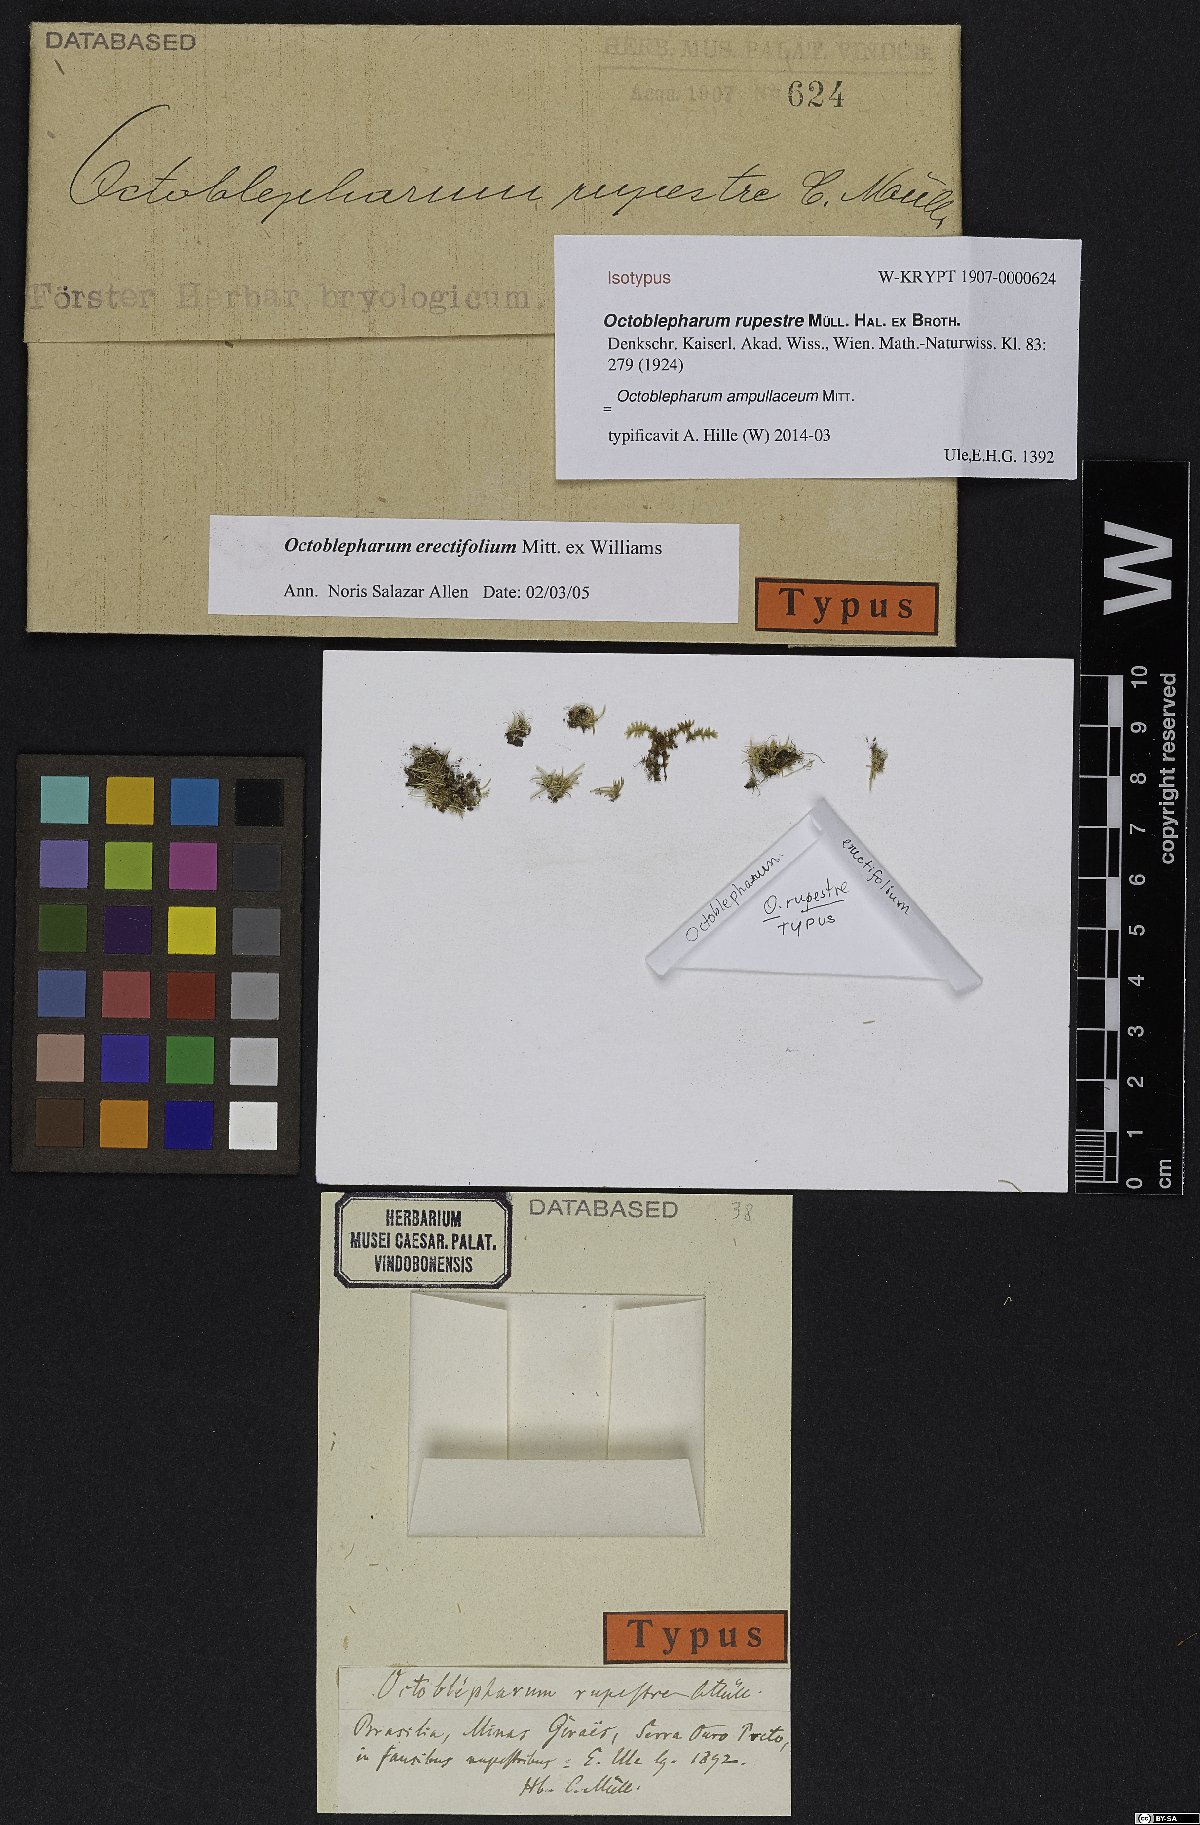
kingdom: Plantae
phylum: Bryophyta
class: Bryopsida
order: Dicranales
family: Octoblepharaceae
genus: Octoblepharum
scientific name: Octoblepharum ampullaceum
